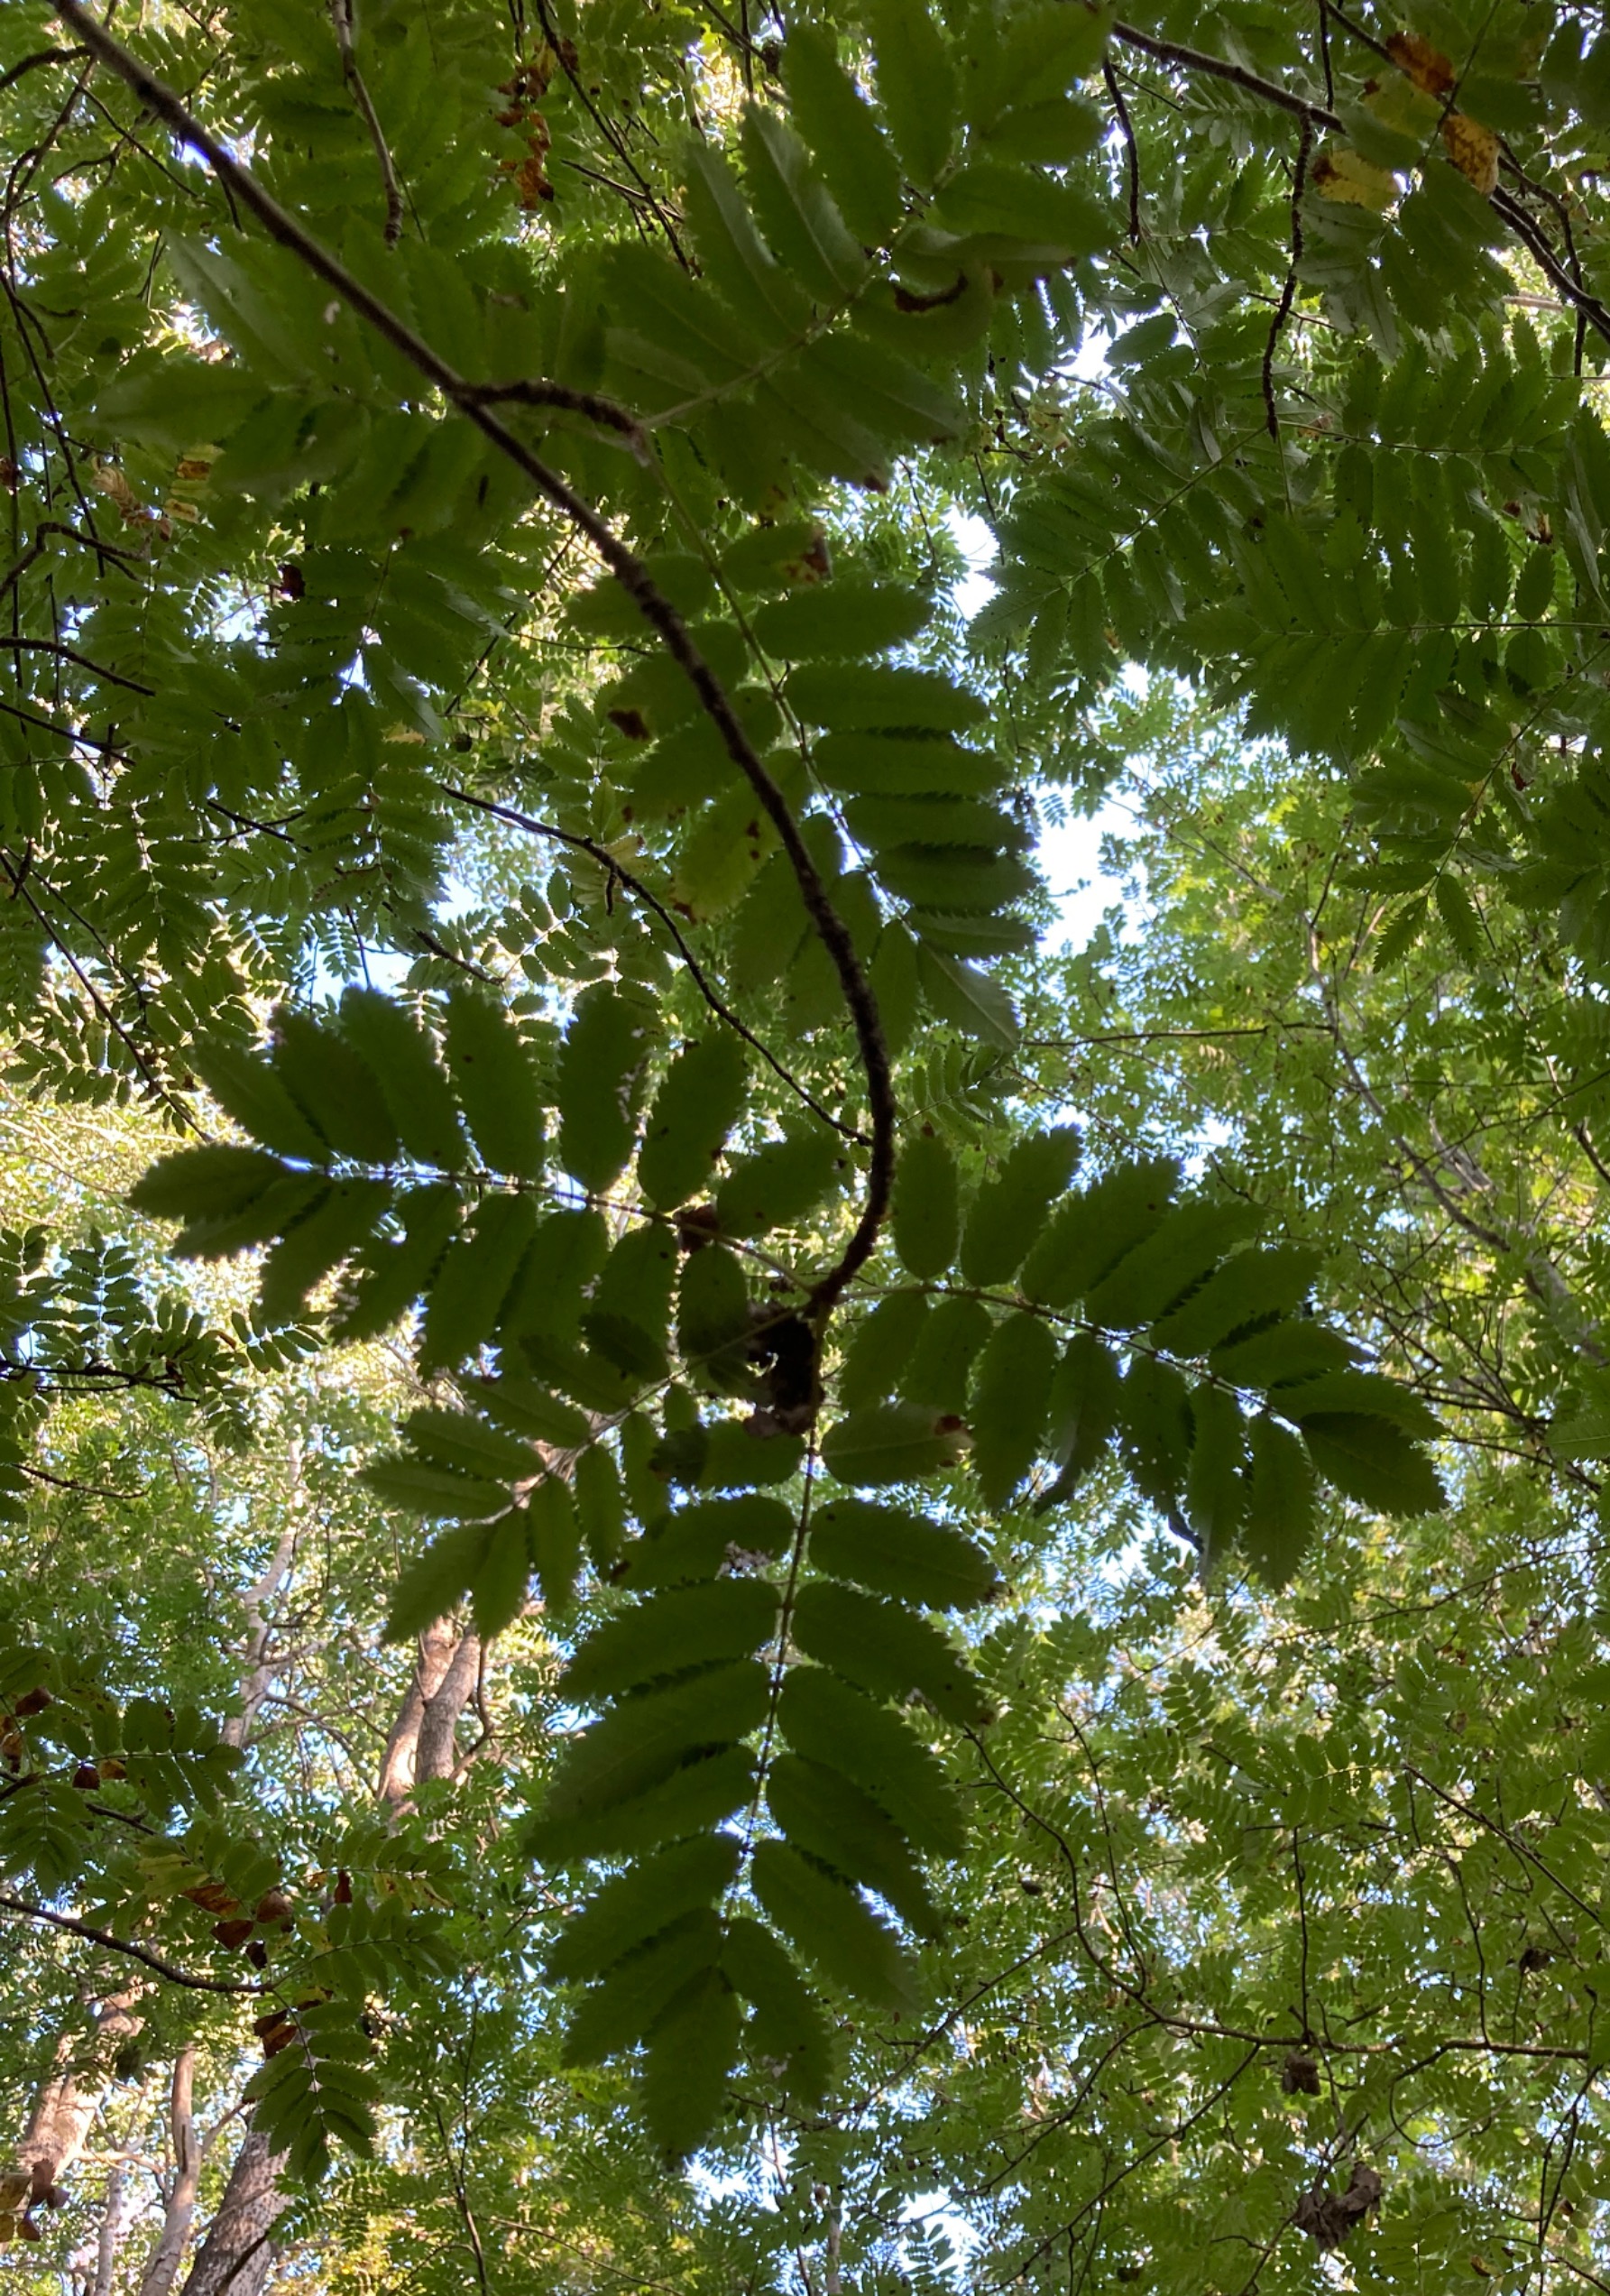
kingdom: Plantae
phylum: Tracheophyta
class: Magnoliopsida
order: Rosales
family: Rosaceae
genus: Sorbus
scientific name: Sorbus aucuparia
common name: Almindelig røn
